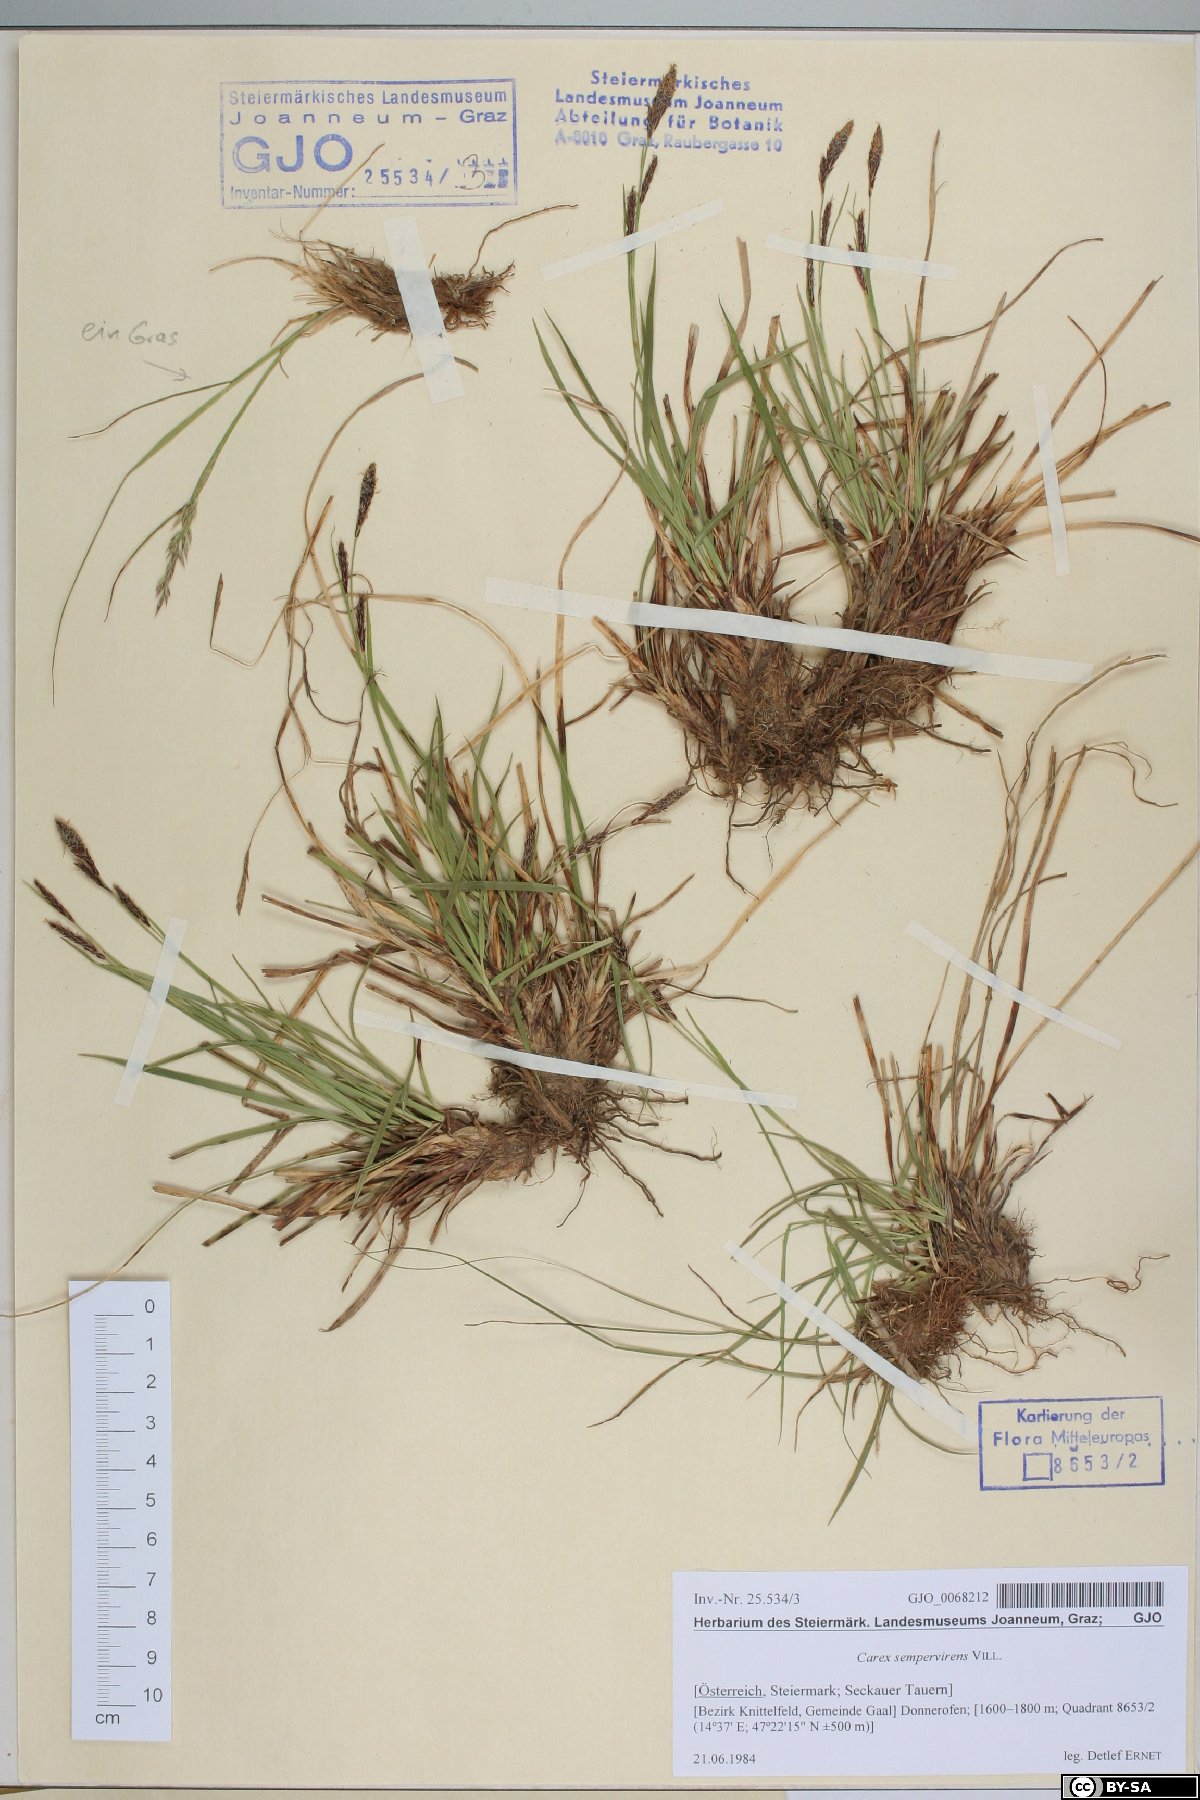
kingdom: Plantae
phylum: Tracheophyta
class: Liliopsida
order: Poales
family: Cyperaceae
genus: Carex
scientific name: Carex sempervirens
